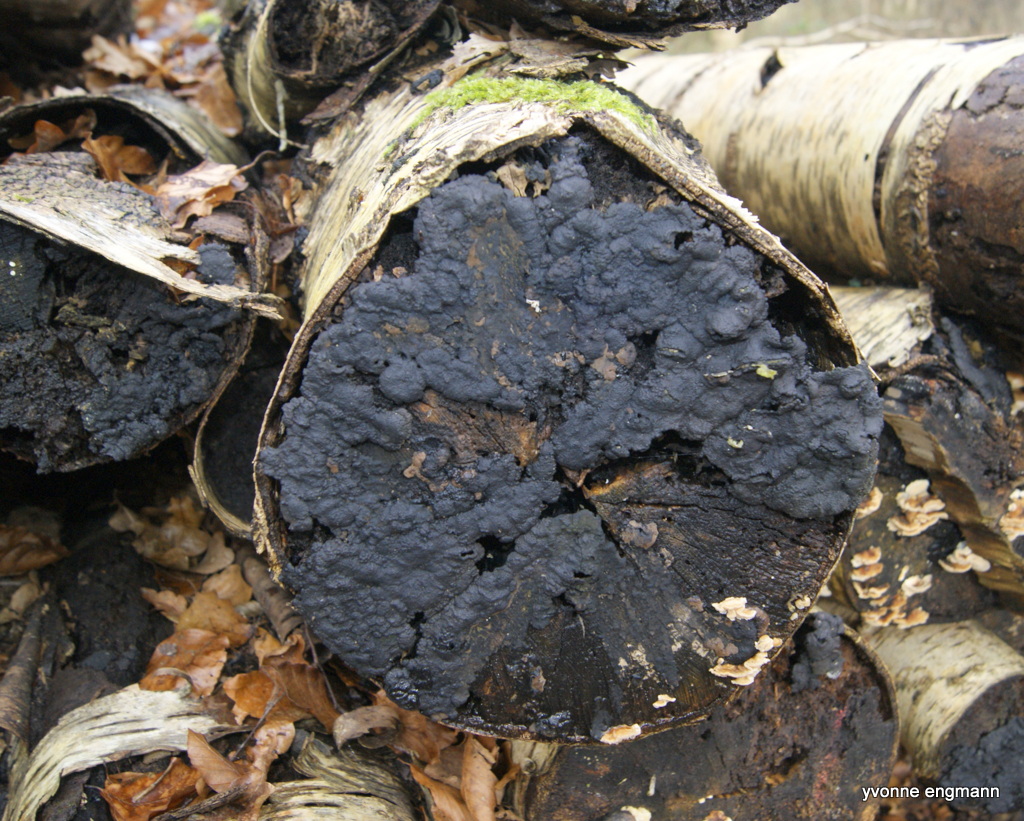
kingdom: Fungi
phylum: Ascomycota
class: Sordariomycetes
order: Xylariales
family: Hypoxylaceae
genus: Jackrogersella
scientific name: Jackrogersella multiformis
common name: foranderlig kulbær
